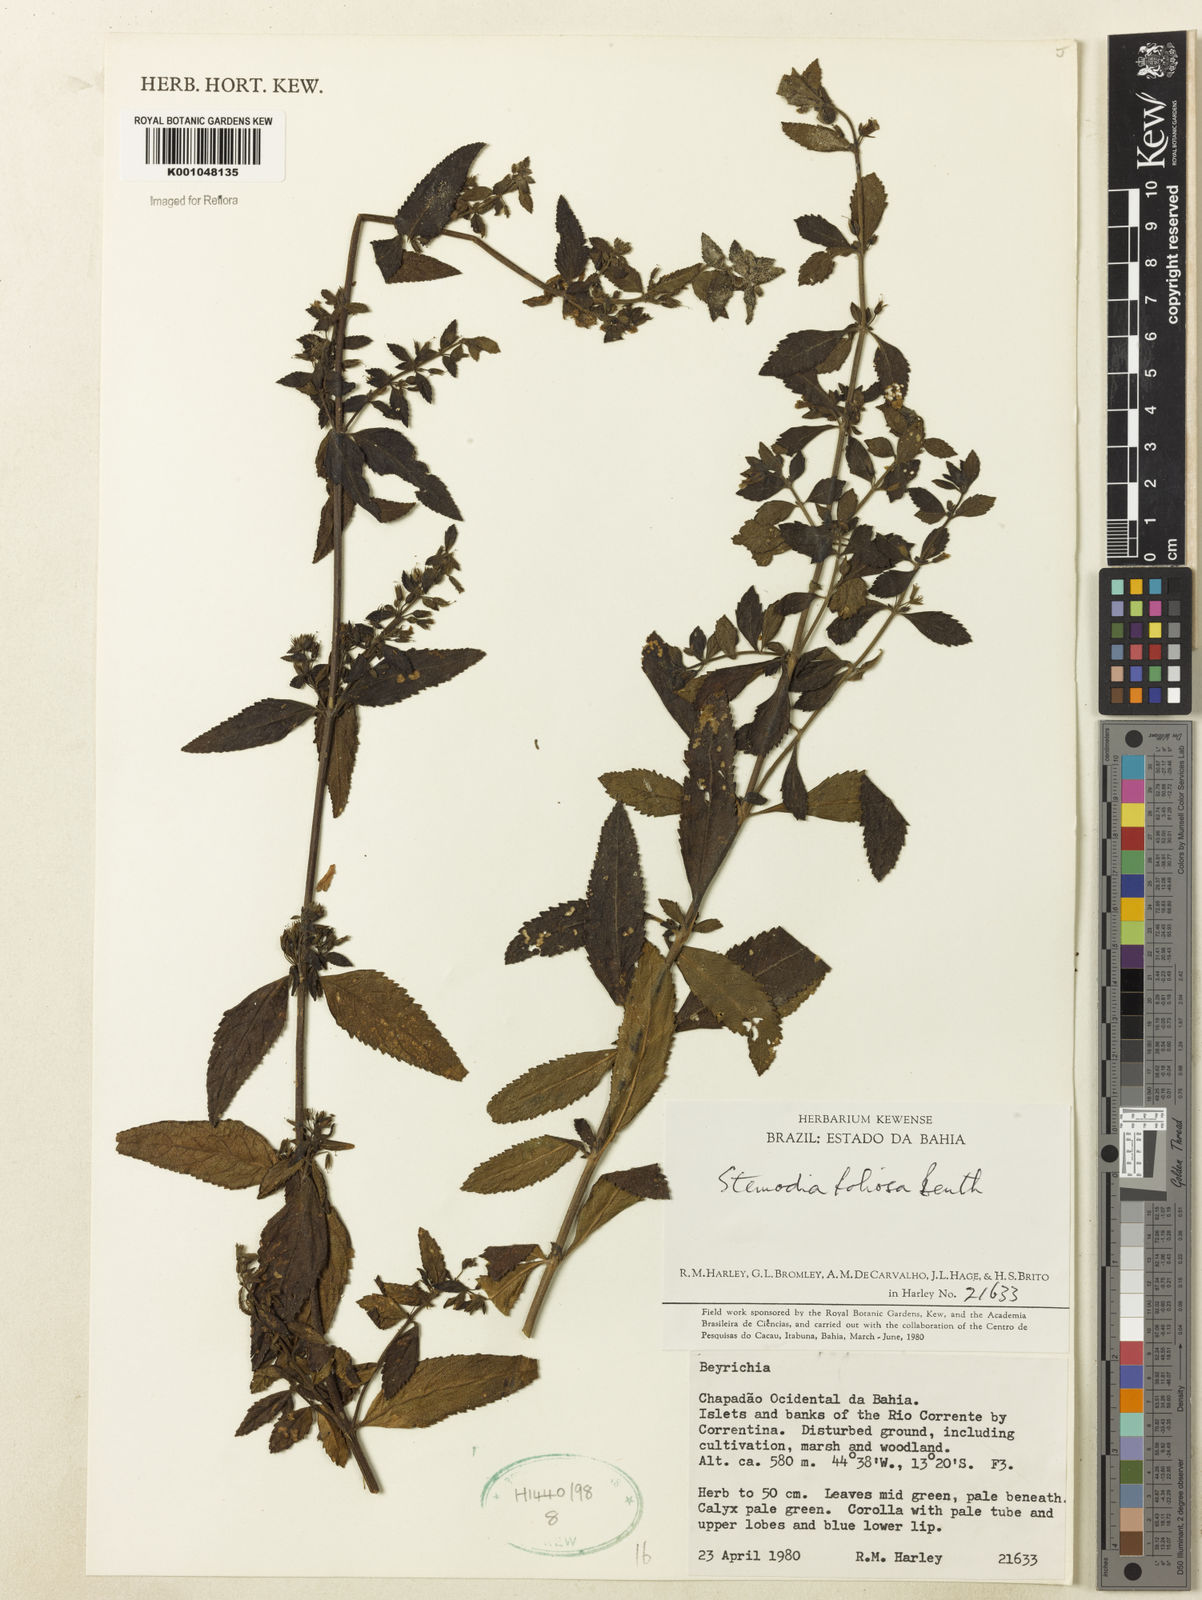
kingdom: Plantae
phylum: Tracheophyta
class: Magnoliopsida
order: Lamiales
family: Plantaginaceae
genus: Stemodia
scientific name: Stemodia foliosa
